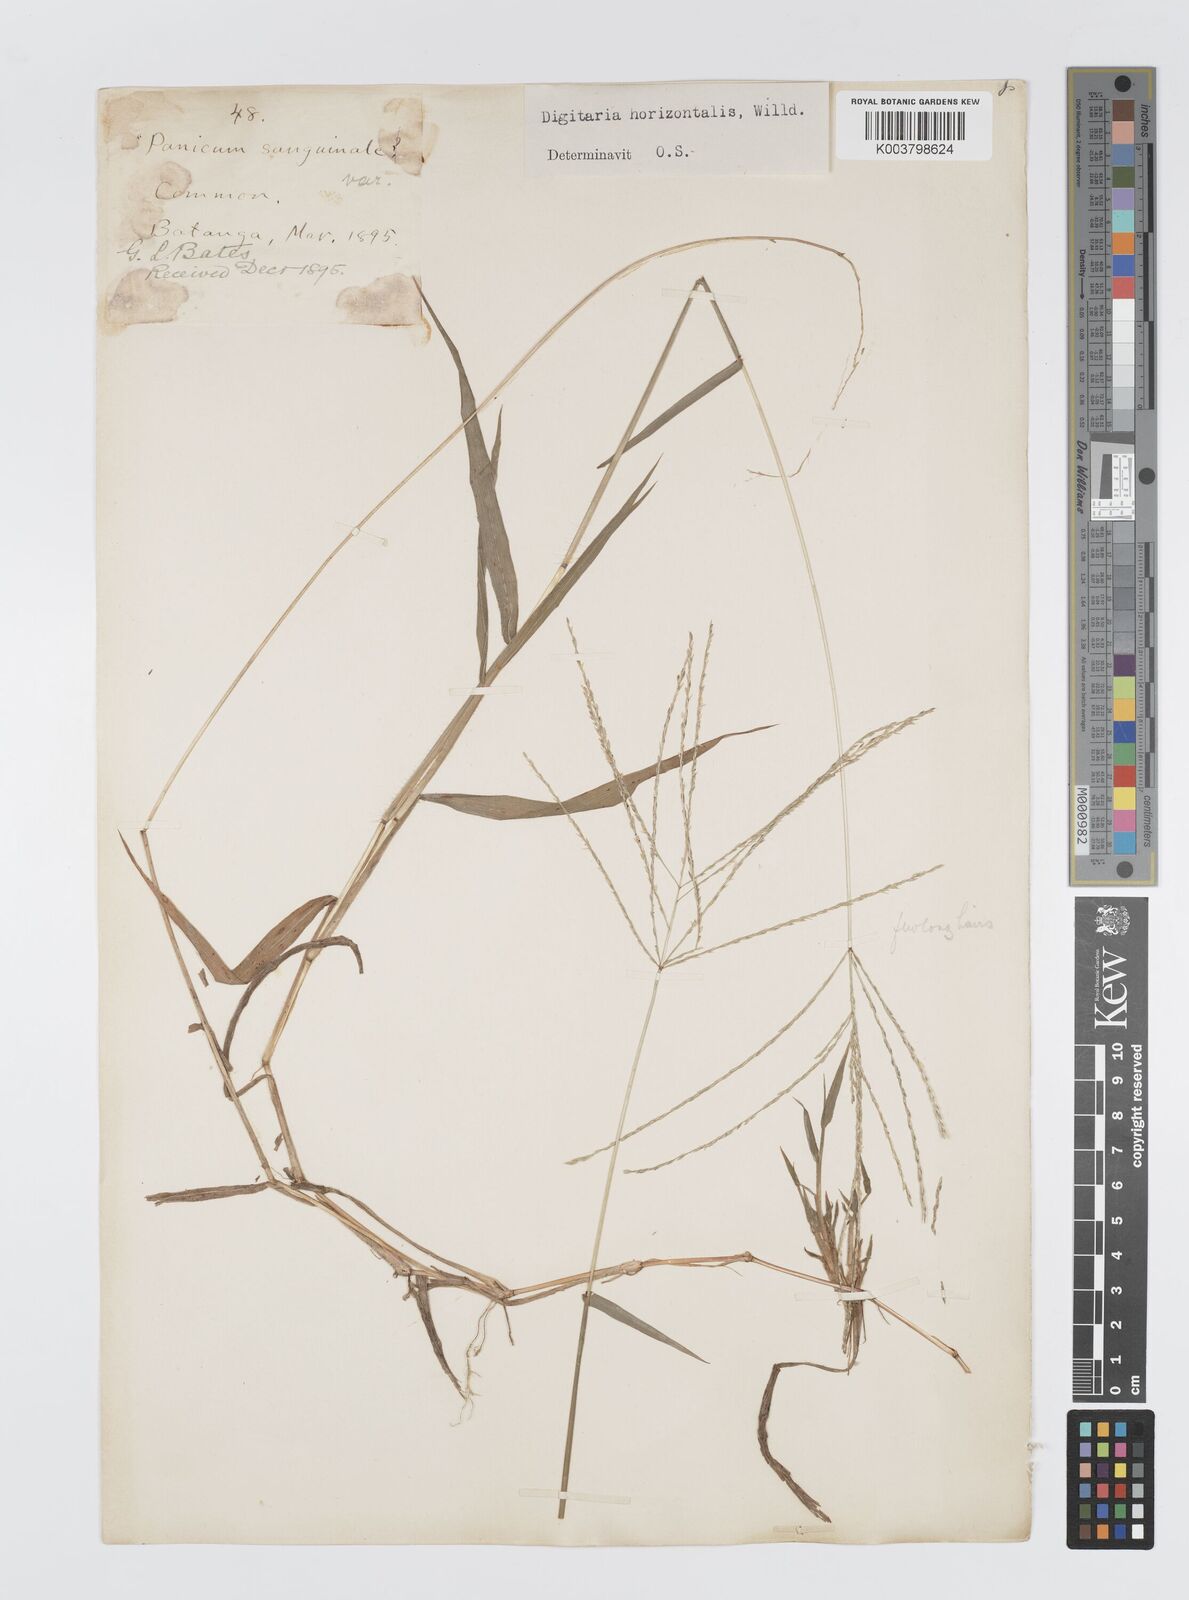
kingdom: Plantae
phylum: Tracheophyta
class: Liliopsida
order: Poales
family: Poaceae
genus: Digitaria
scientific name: Digitaria horizontalis
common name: Jamaican crabgrass
